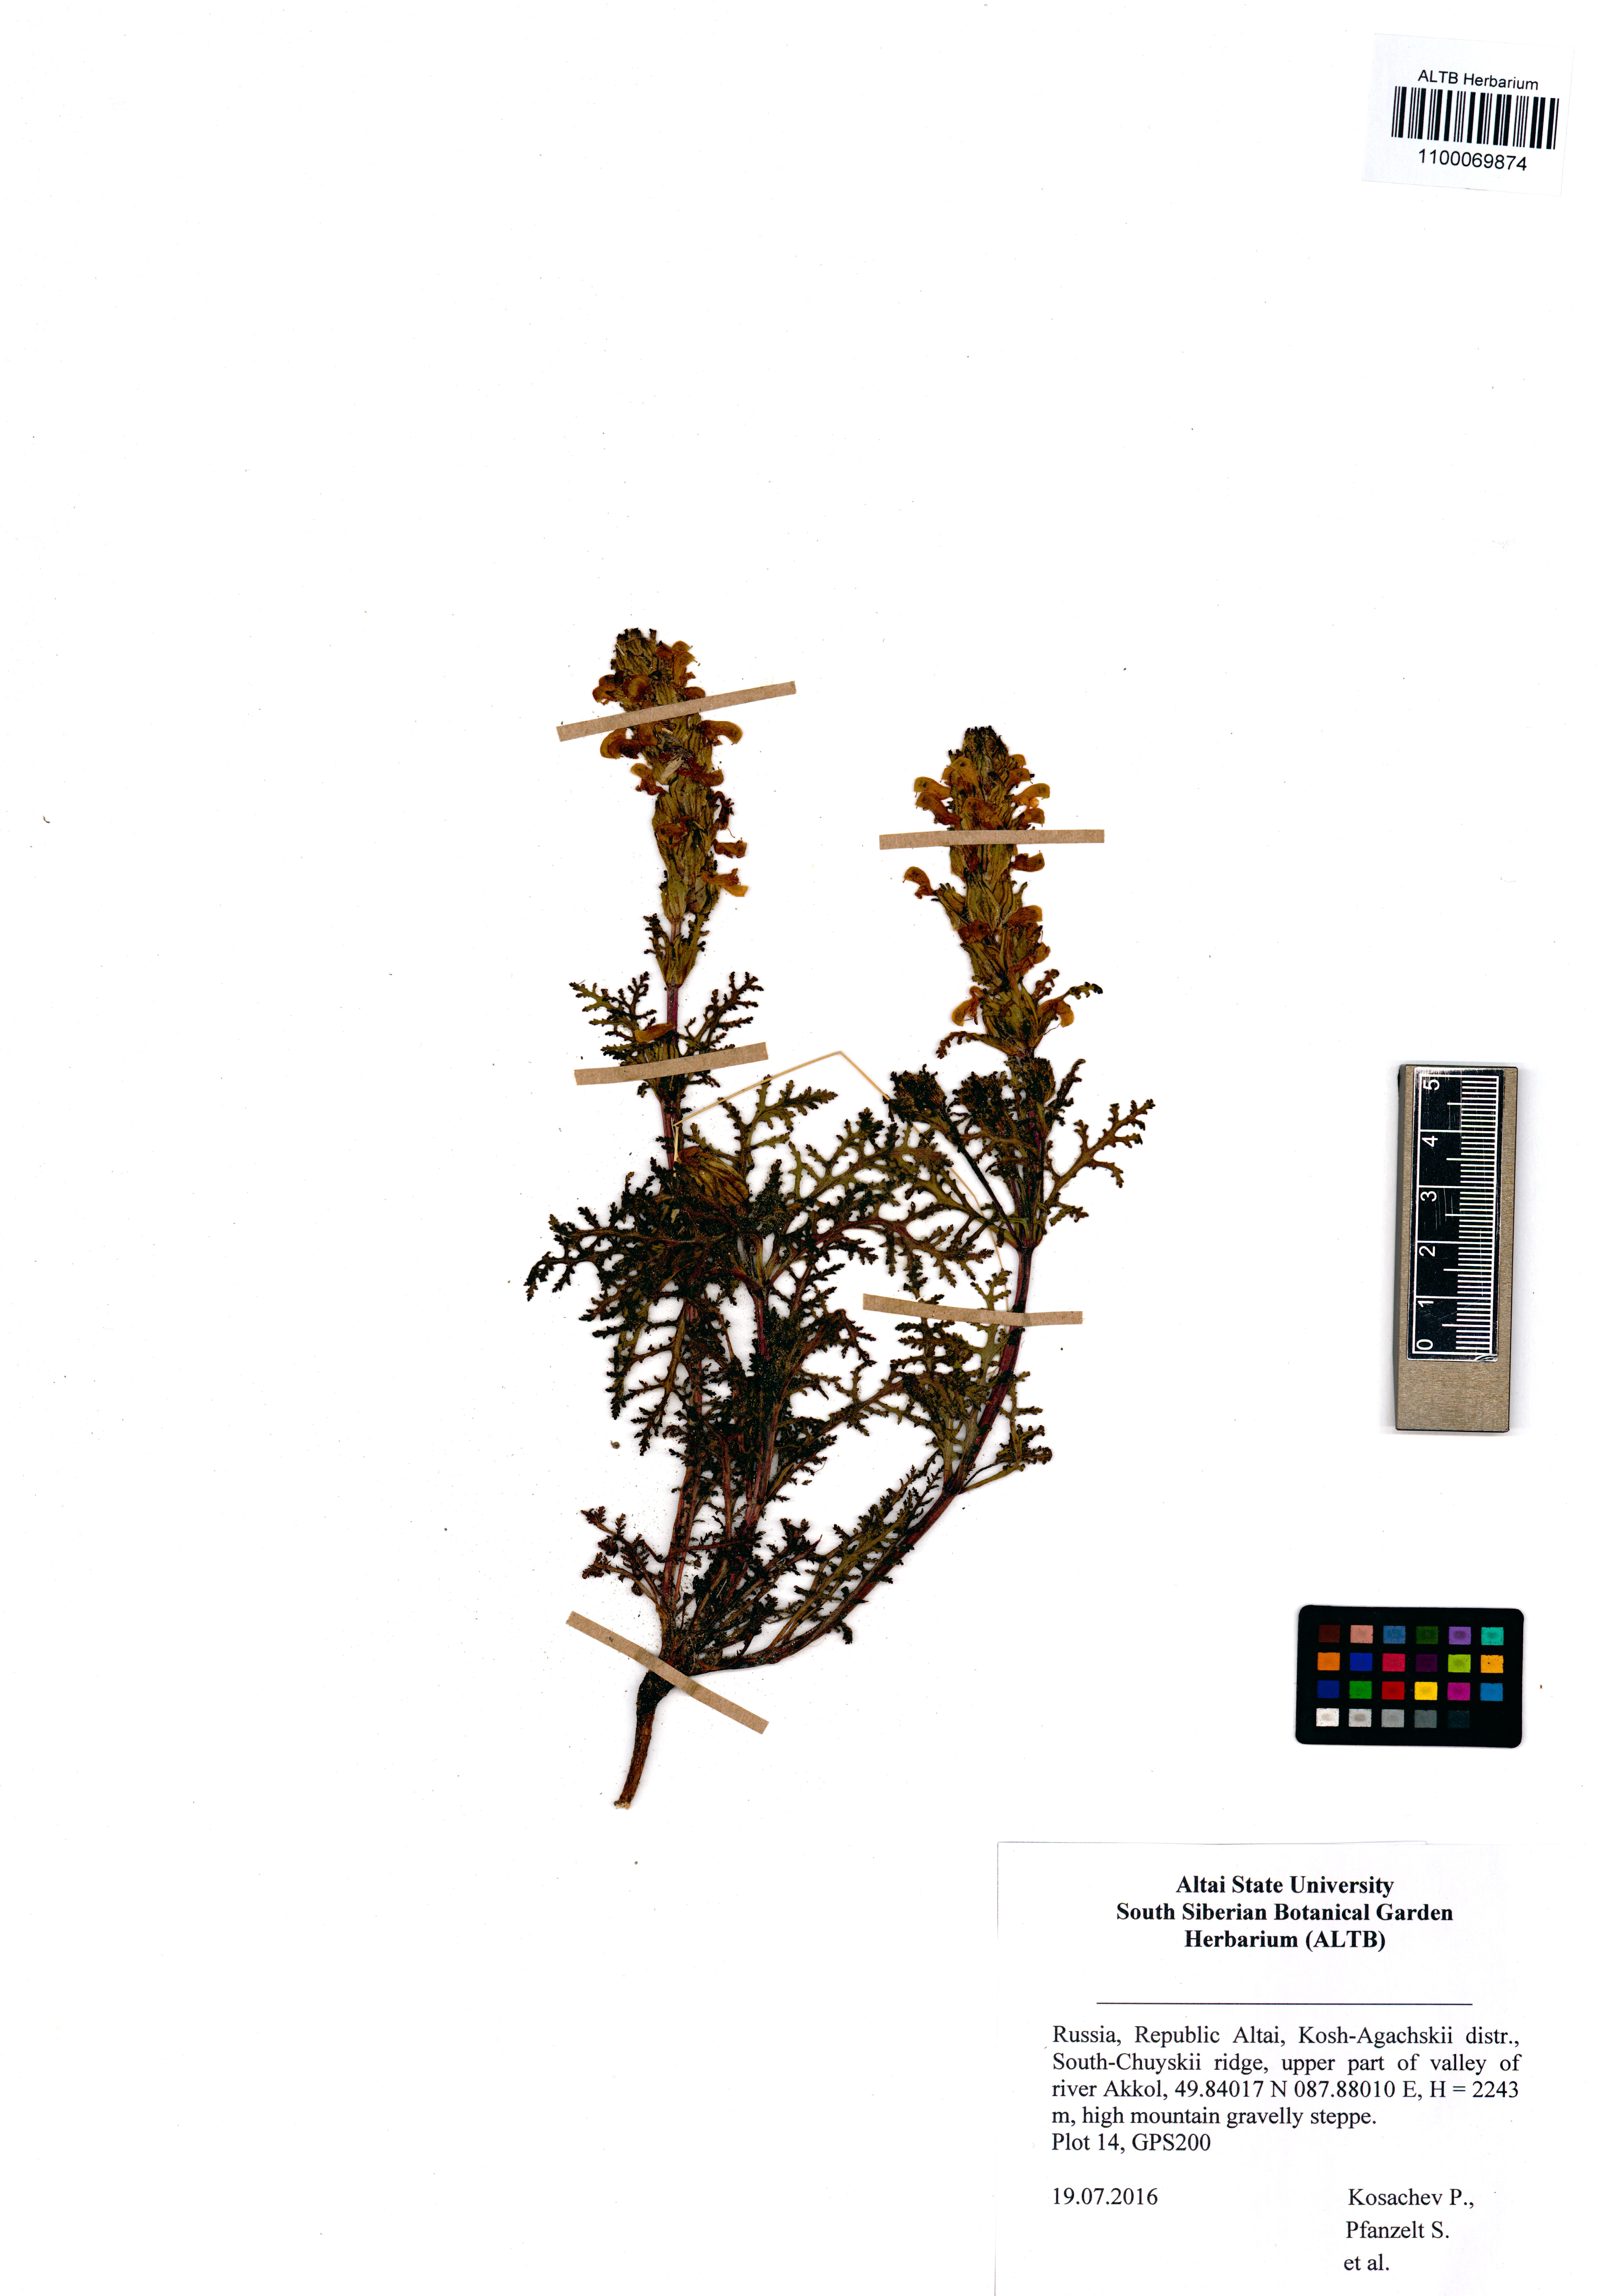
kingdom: Plantae
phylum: Tracheophyta
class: Magnoliopsida
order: Lamiales
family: Orobanchaceae
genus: Pedicularis
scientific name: Pedicularis abrotanifolia
